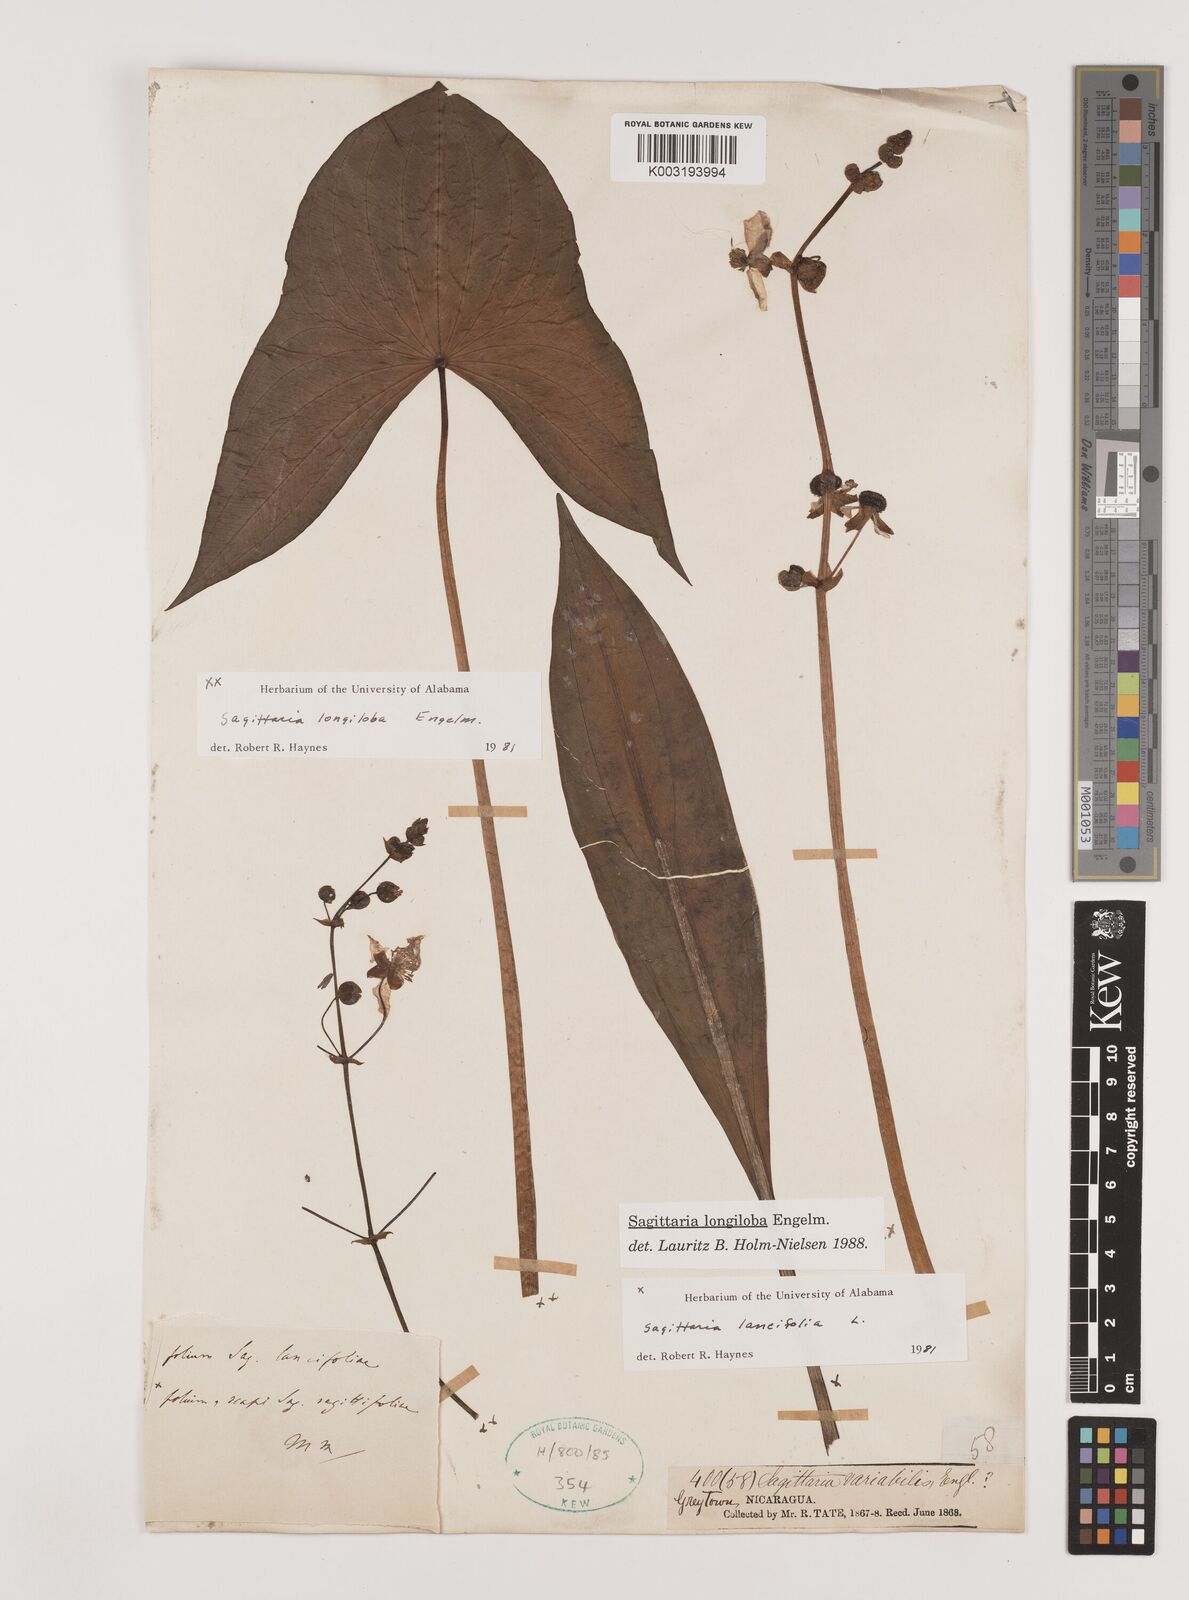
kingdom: Plantae
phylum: Tracheophyta
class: Liliopsida
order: Alismatales
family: Alismataceae
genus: Sagittaria
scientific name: Sagittaria longiloba
